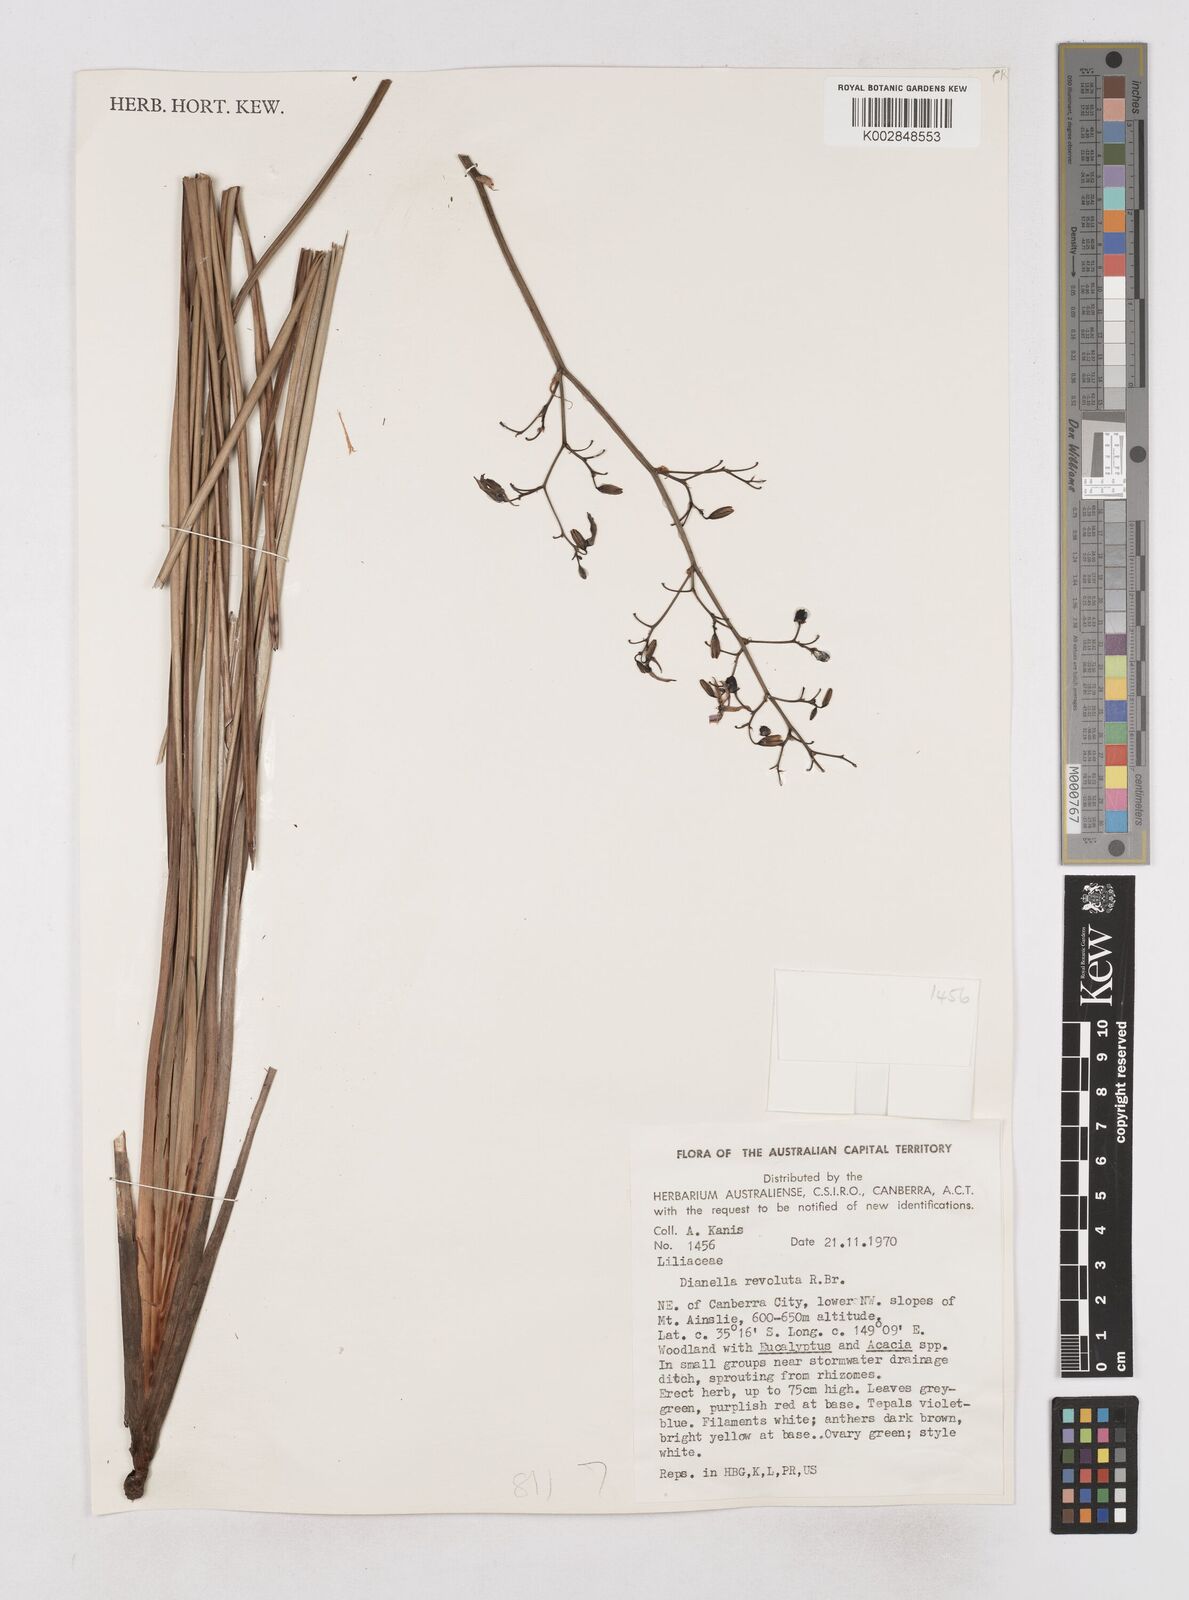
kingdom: Plantae
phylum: Tracheophyta
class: Liliopsida
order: Asparagales
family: Asphodelaceae
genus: Dianella
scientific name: Dianella revoluta
